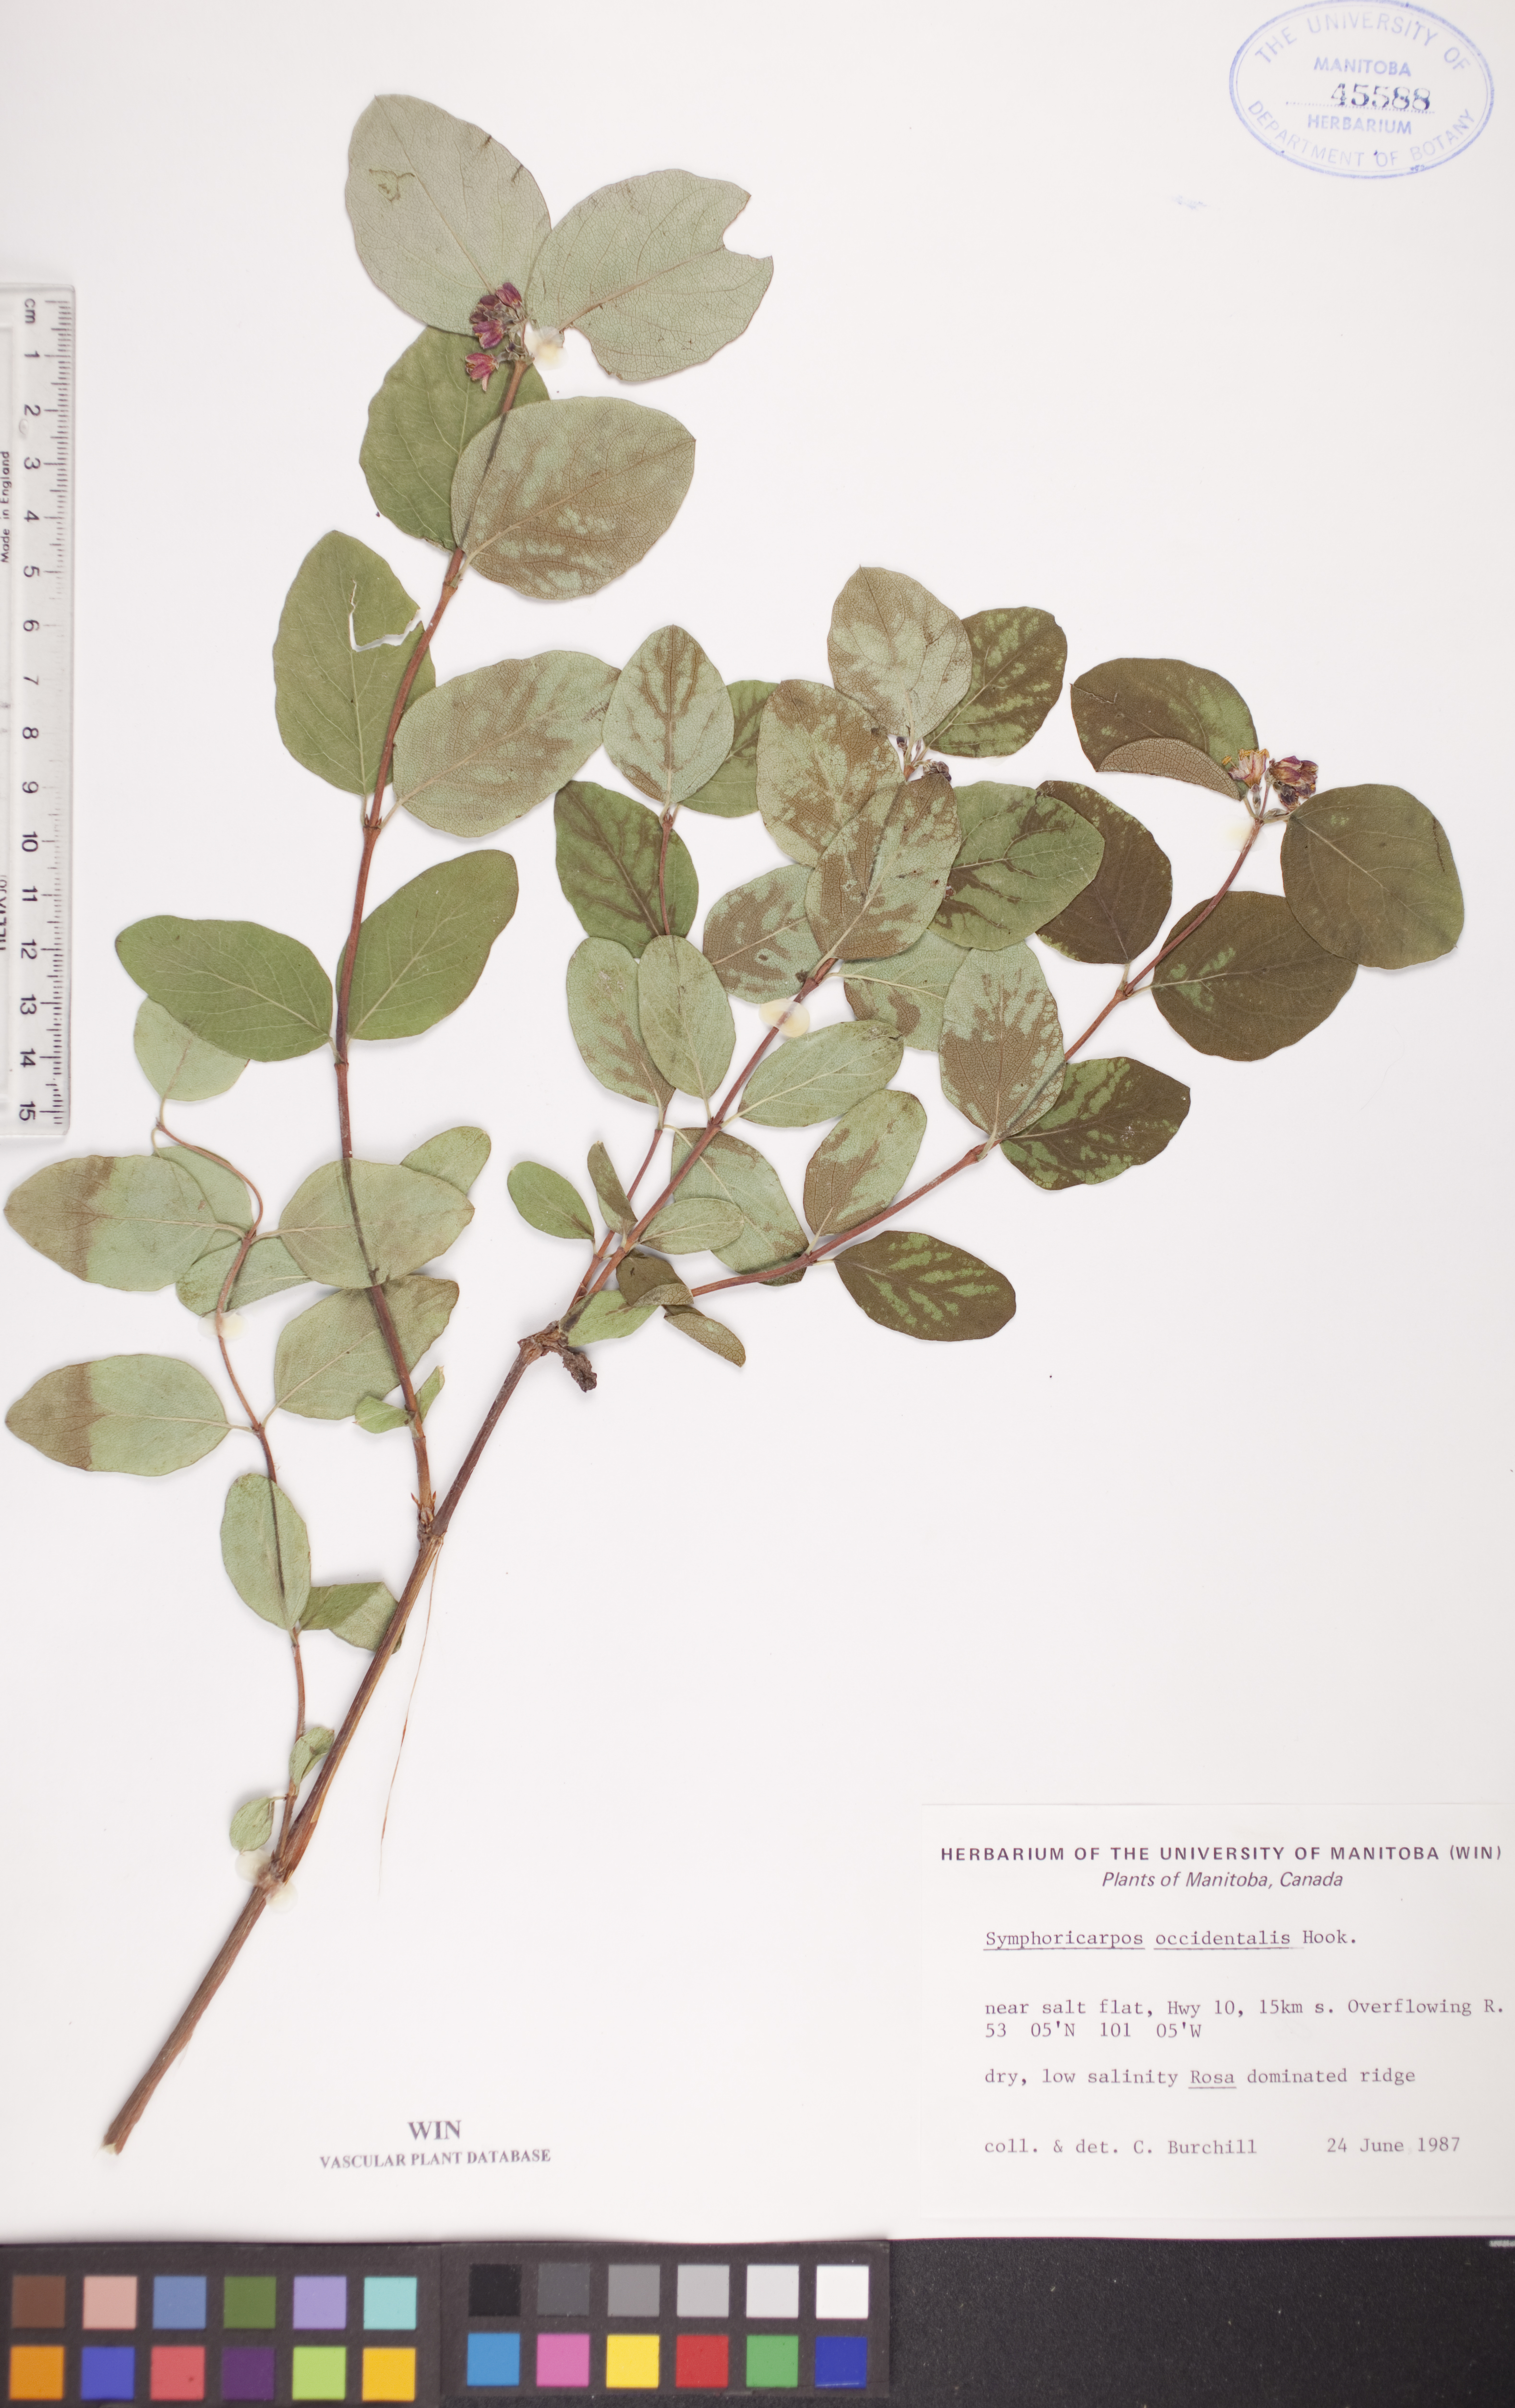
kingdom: Plantae
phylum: Tracheophyta
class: Magnoliopsida
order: Dipsacales
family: Caprifoliaceae
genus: Symphoricarpos
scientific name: Symphoricarpos occidentalis
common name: Wolfberry
